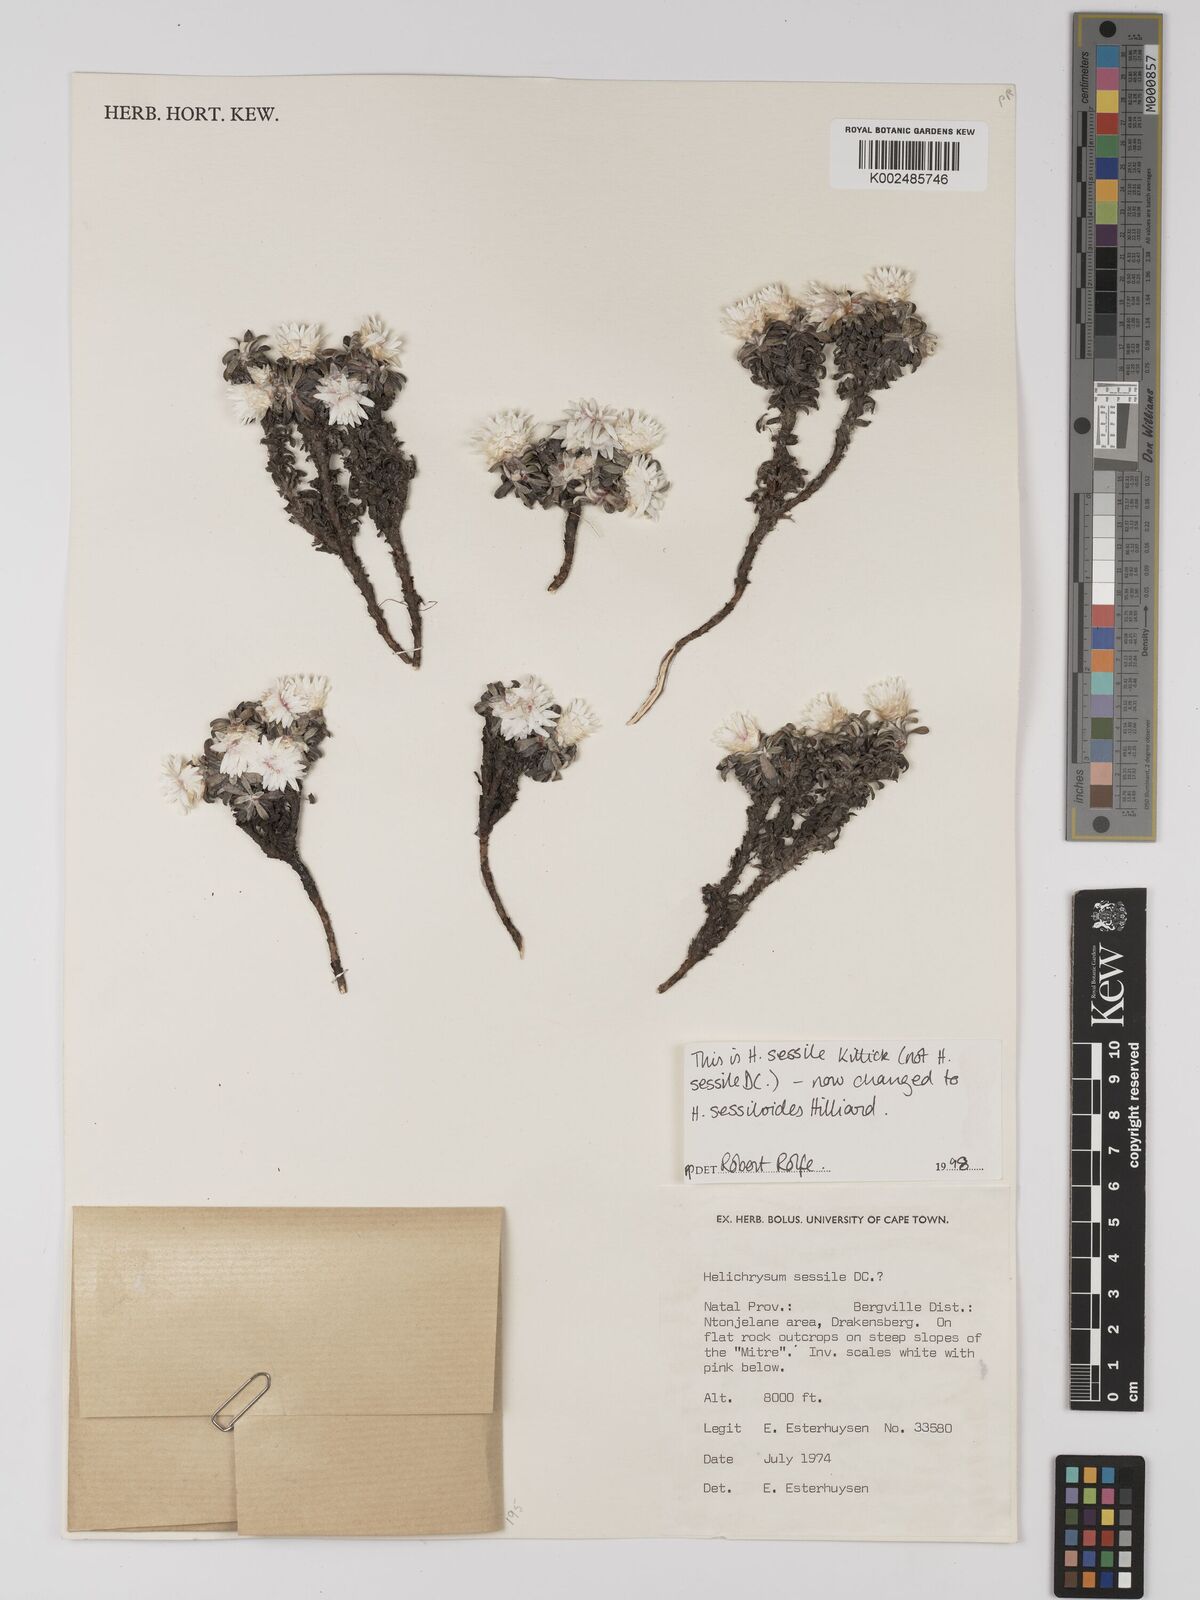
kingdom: Plantae
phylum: Tracheophyta
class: Magnoliopsida
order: Asterales
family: Asteraceae
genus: Helichrysum
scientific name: Helichrysum sessilioides
